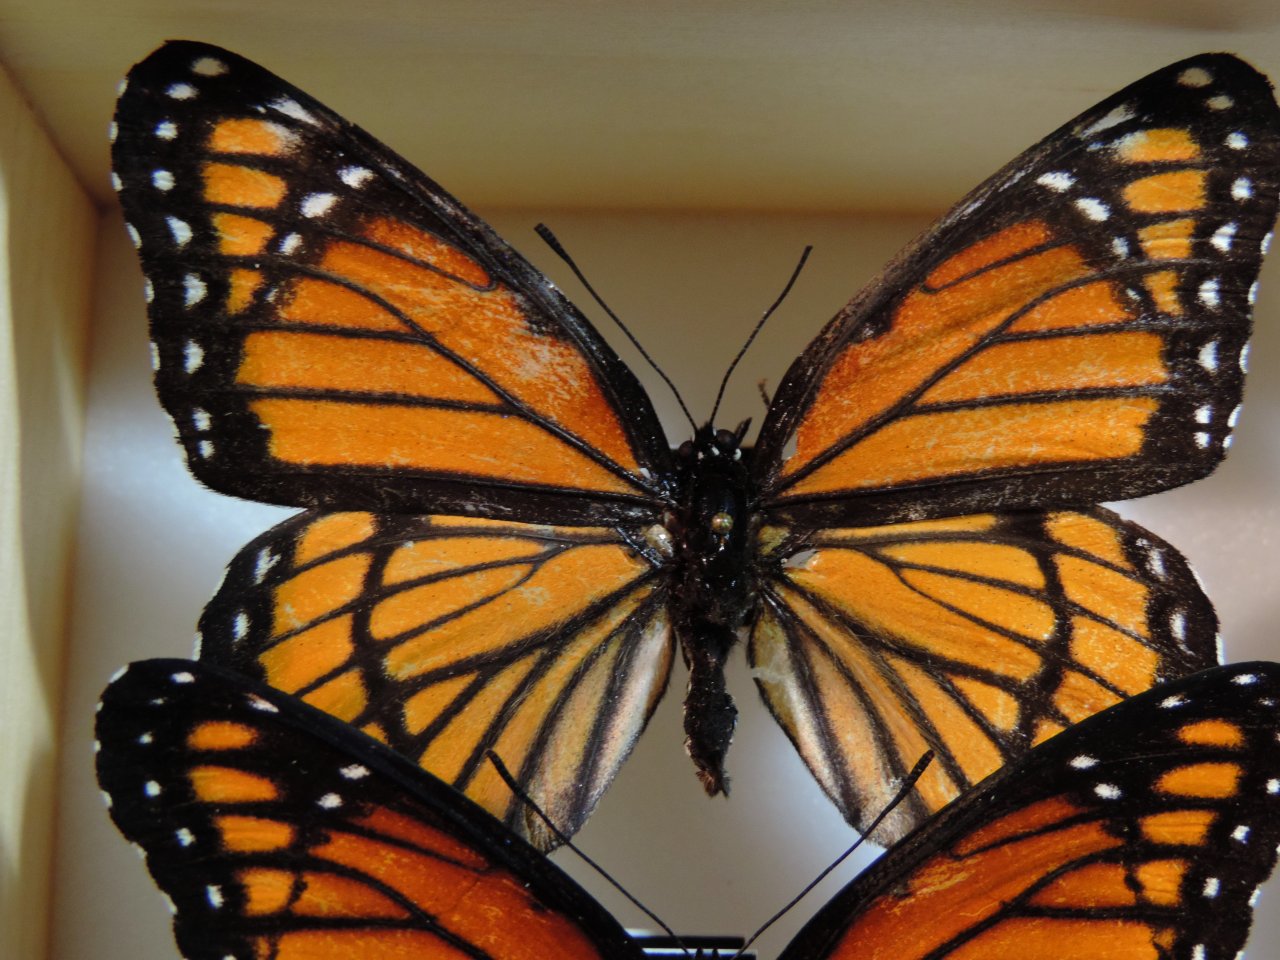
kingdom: Animalia
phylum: Arthropoda
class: Insecta
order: Lepidoptera
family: Nymphalidae
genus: Limenitis
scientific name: Limenitis archippus
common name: Viceroy
